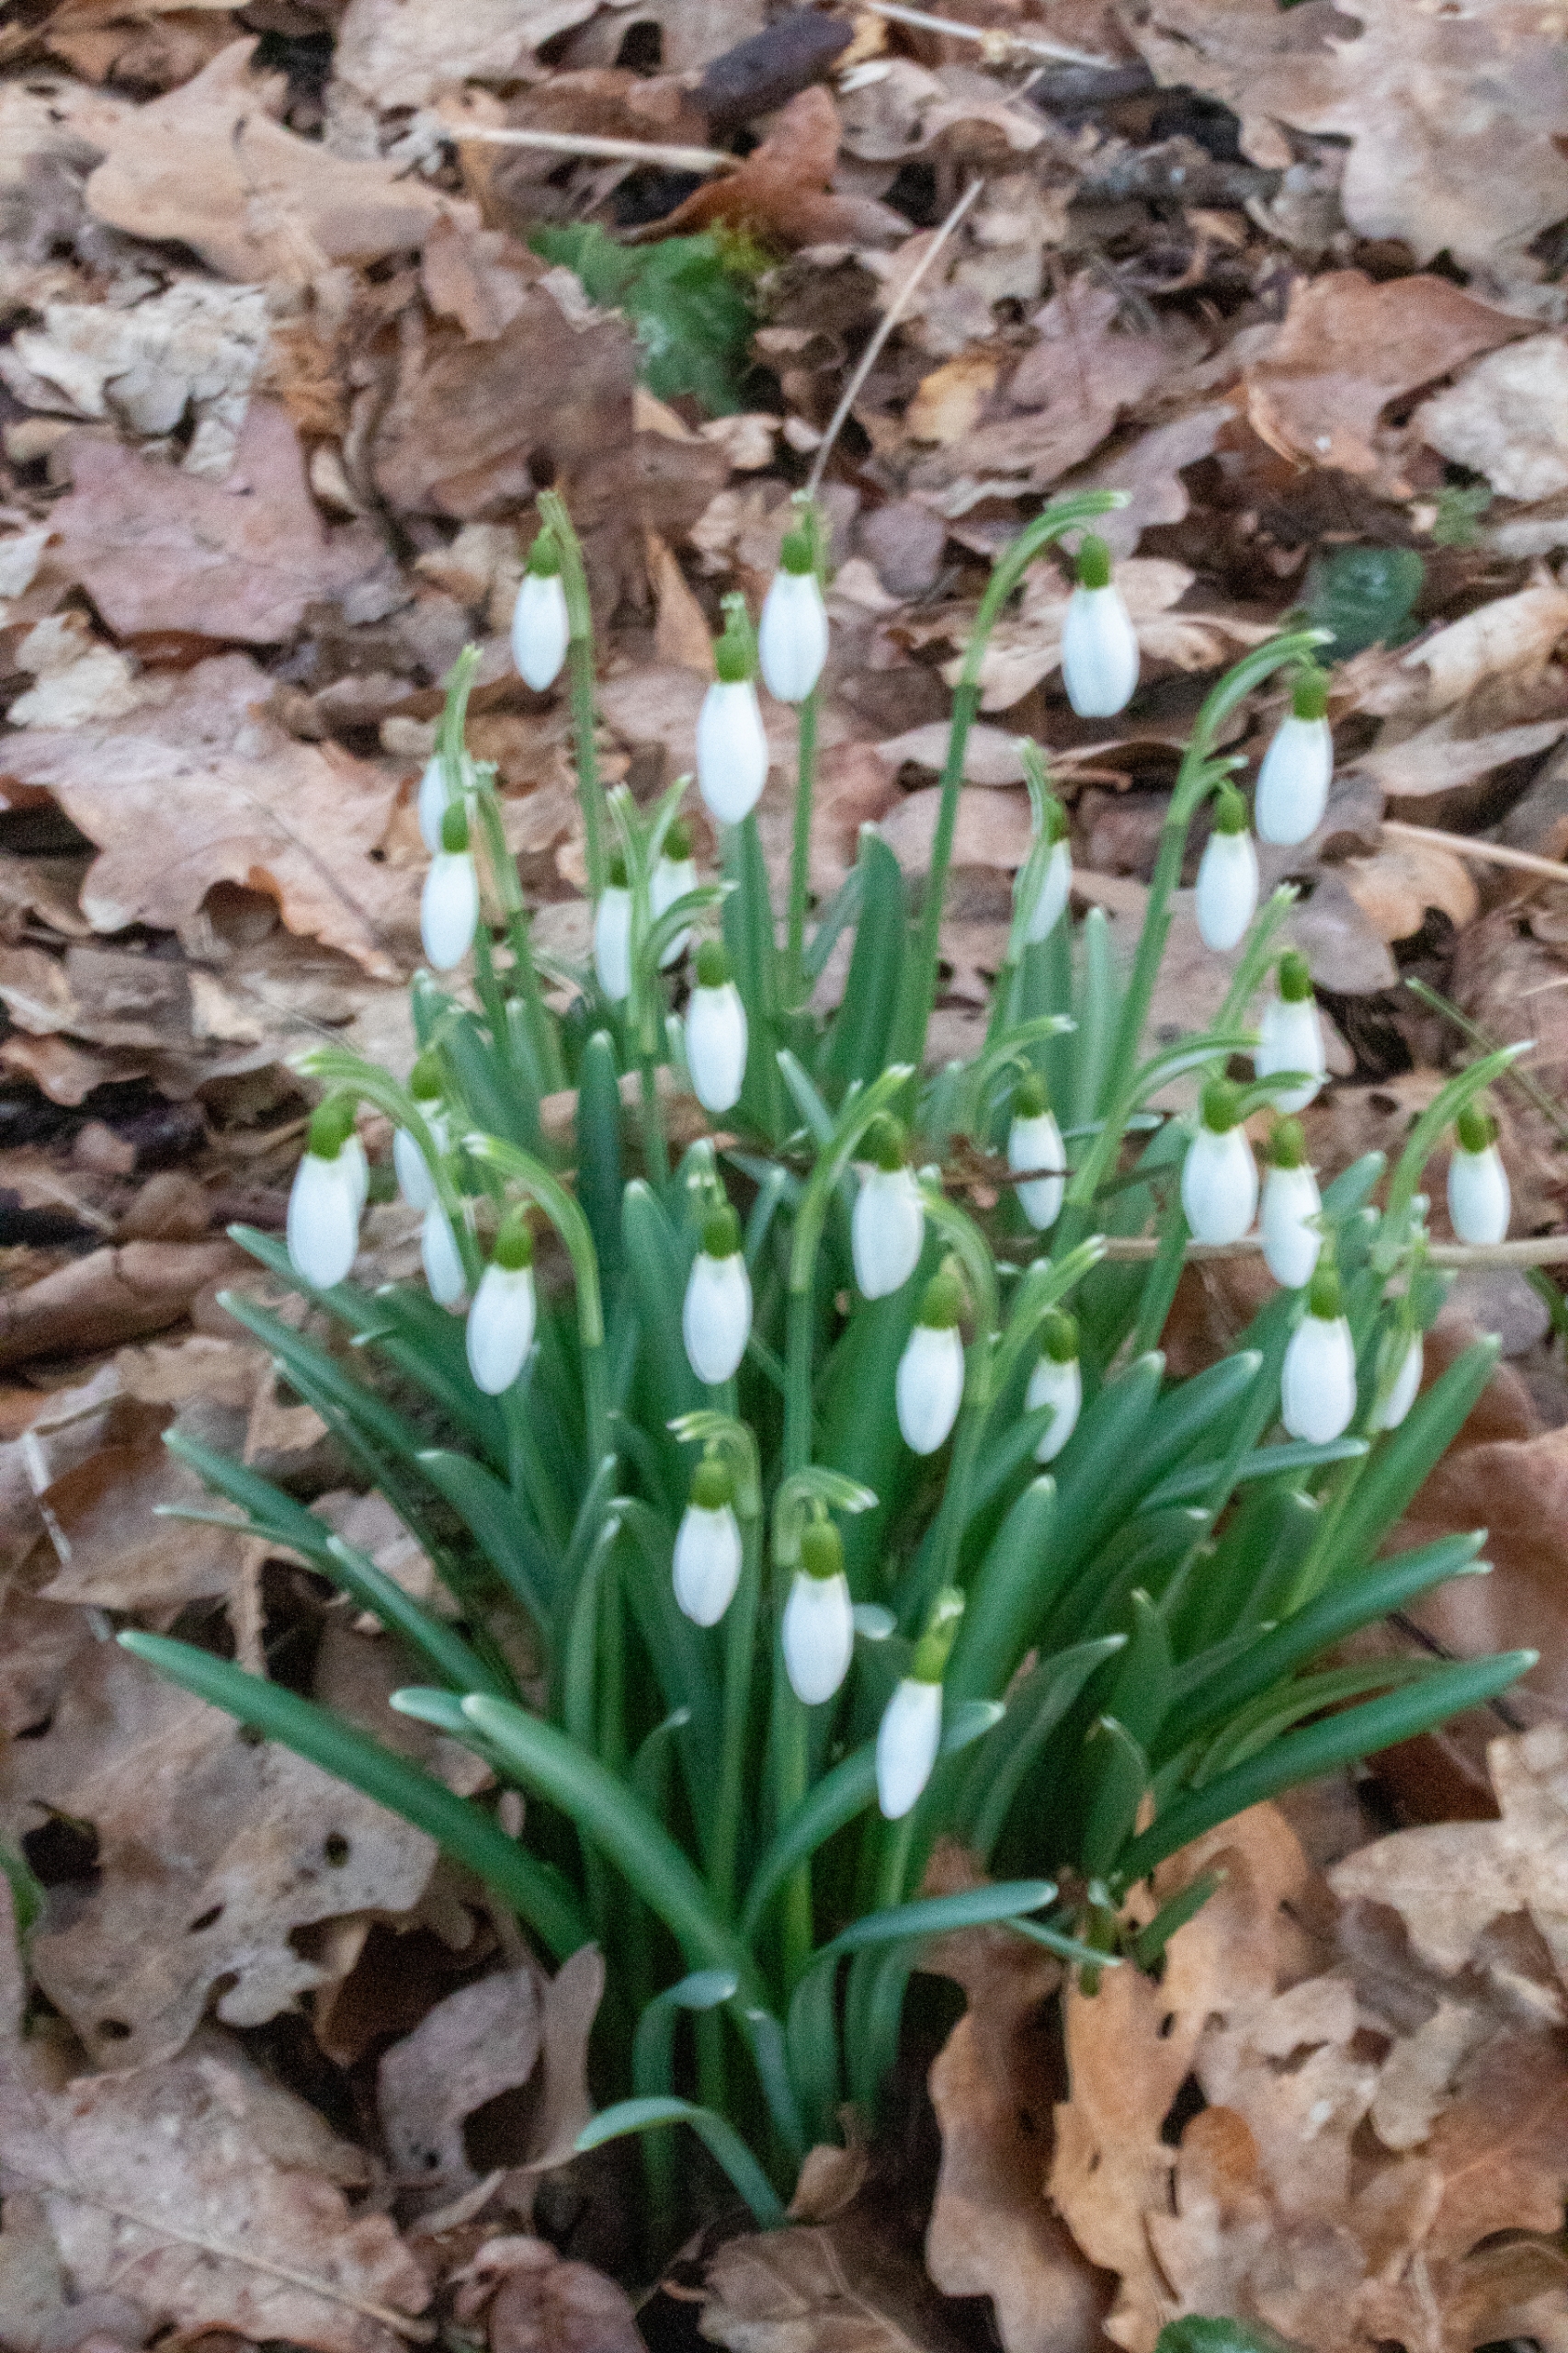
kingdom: Plantae
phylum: Tracheophyta
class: Liliopsida
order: Asparagales
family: Amaryllidaceae
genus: Galanthus
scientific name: Galanthus nivalis
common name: Vintergæk
